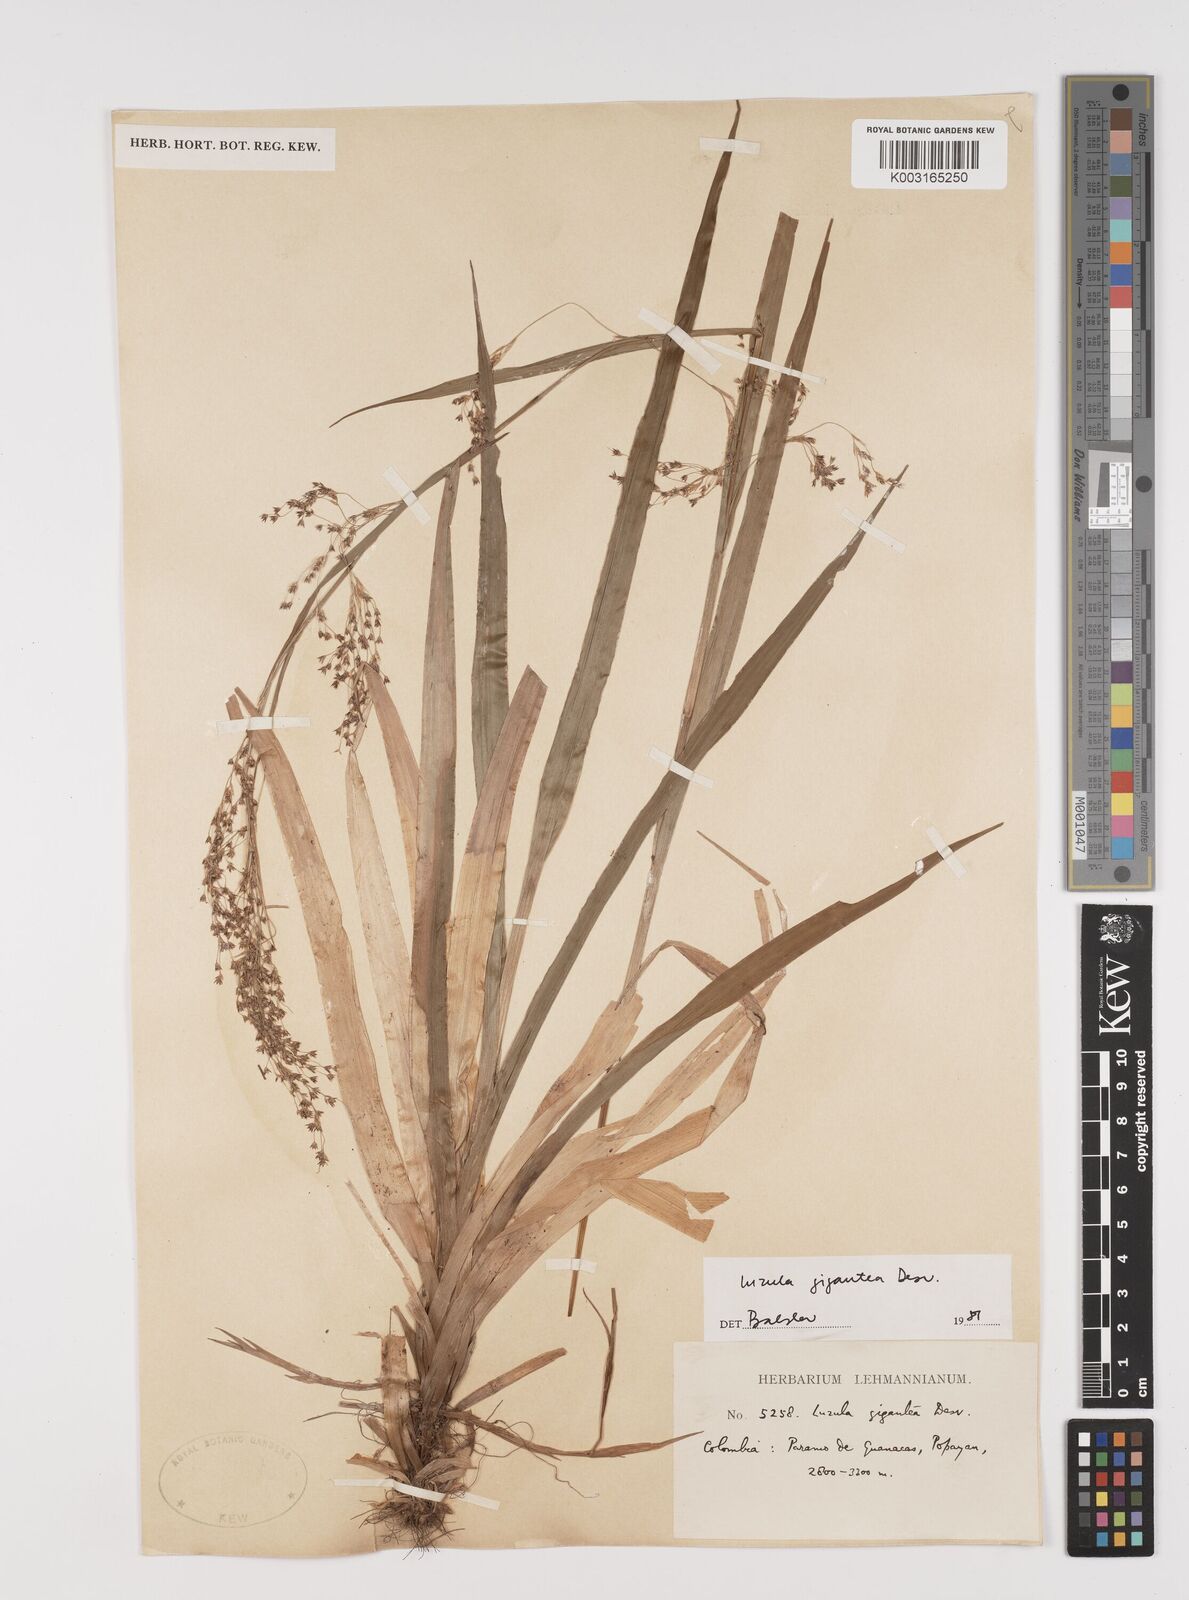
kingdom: Plantae
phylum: Tracheophyta
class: Liliopsida
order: Poales
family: Juncaceae
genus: Luzula
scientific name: Luzula gigantea
